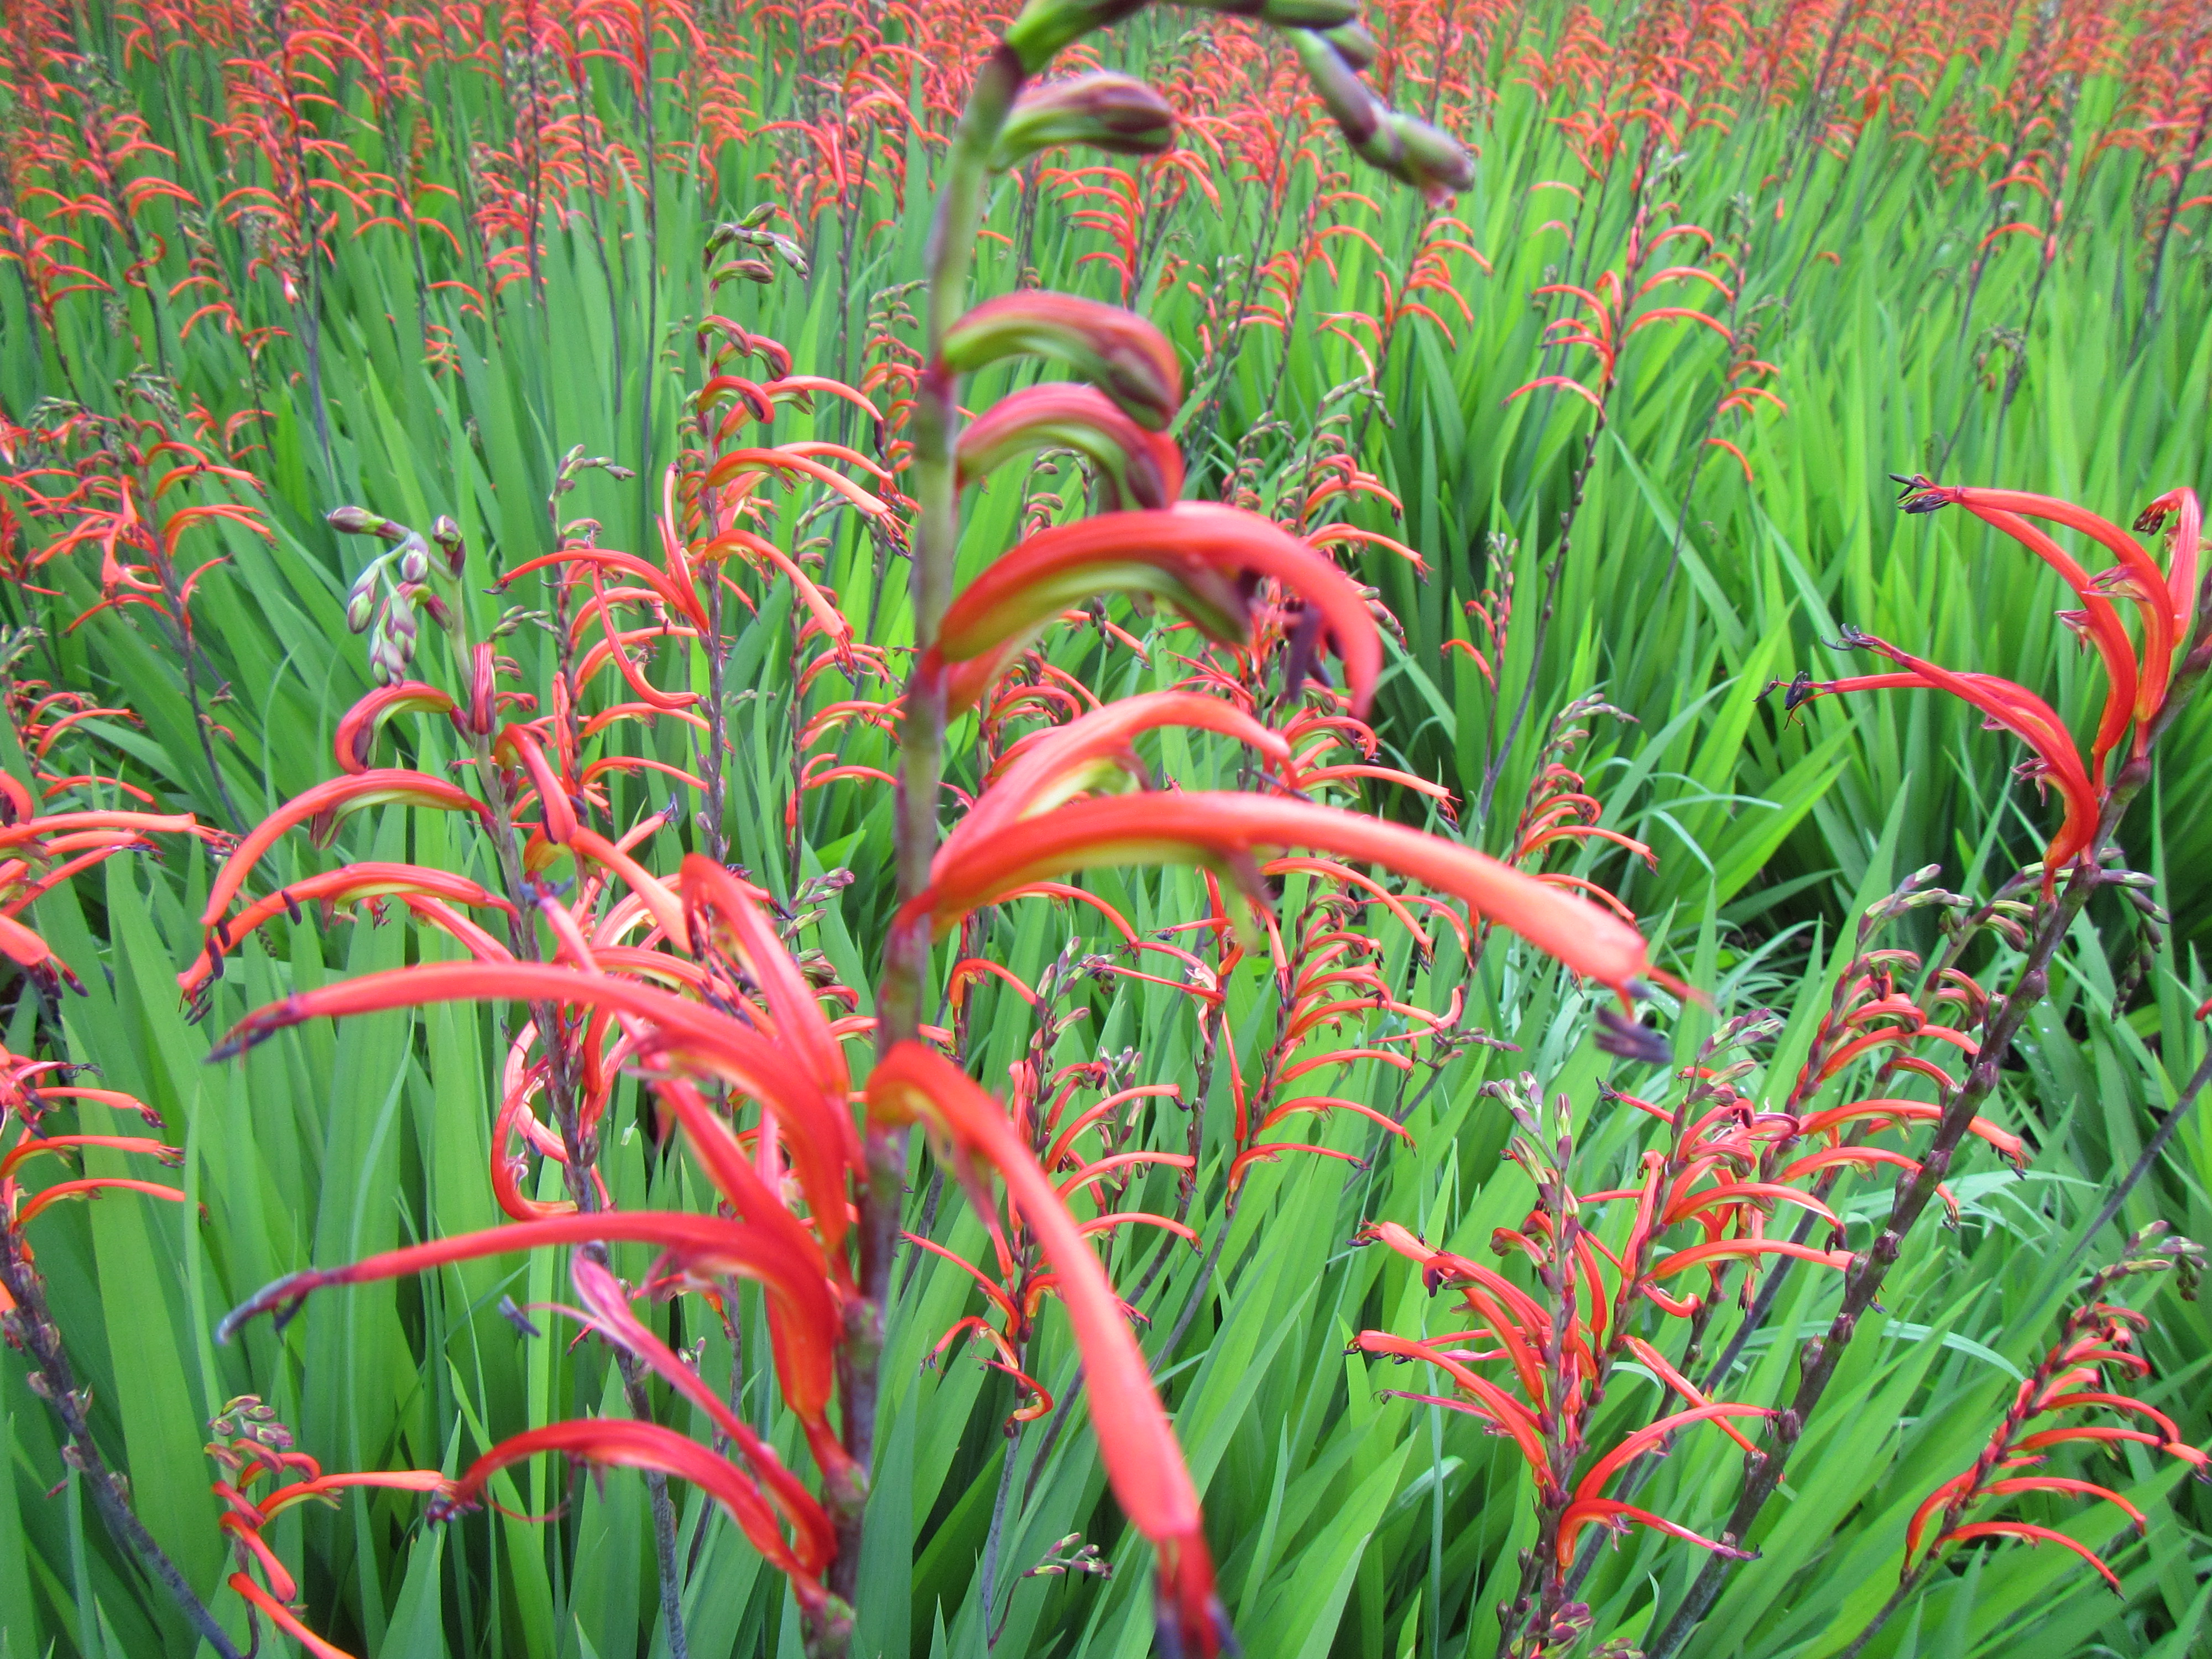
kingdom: Plantae
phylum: Tracheophyta
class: Liliopsida
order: Asparagales
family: Iridaceae
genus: Chasmanthe
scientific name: Chasmanthe bicolor
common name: Bicolor cobra lily
